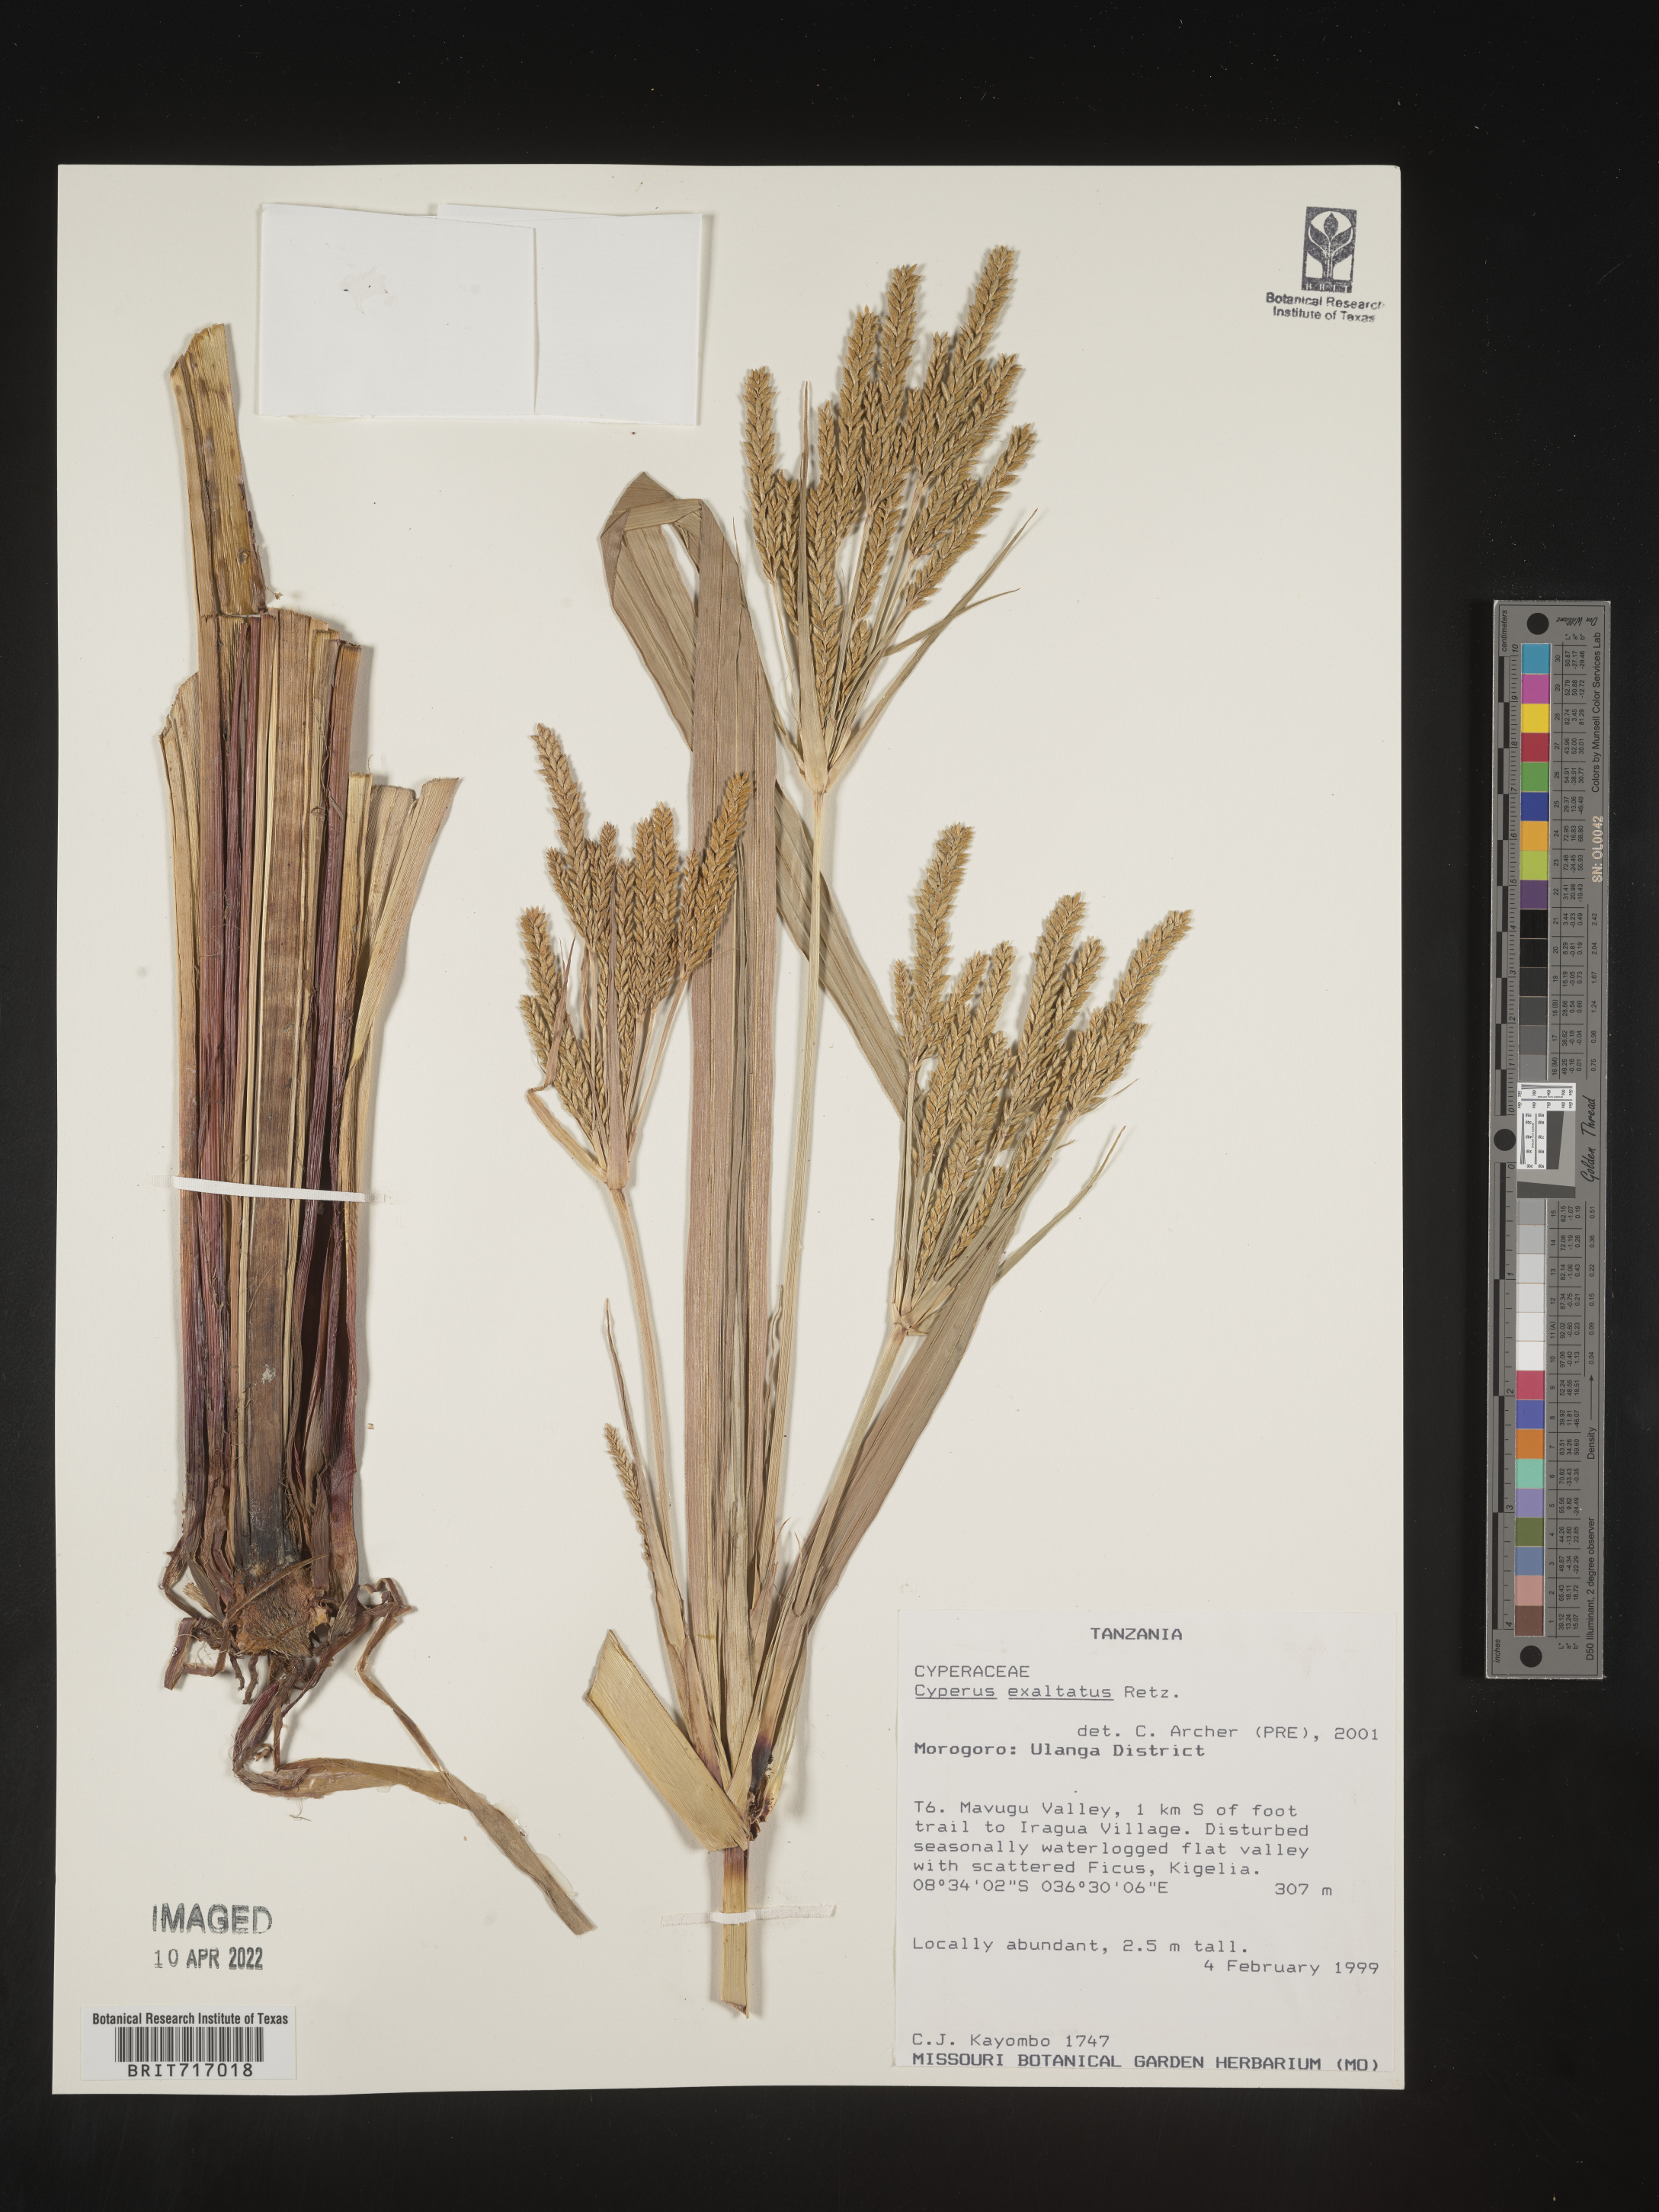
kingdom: Plantae
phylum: Tracheophyta
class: Liliopsida
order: Poales
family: Cyperaceae
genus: Cyperus
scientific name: Cyperus
